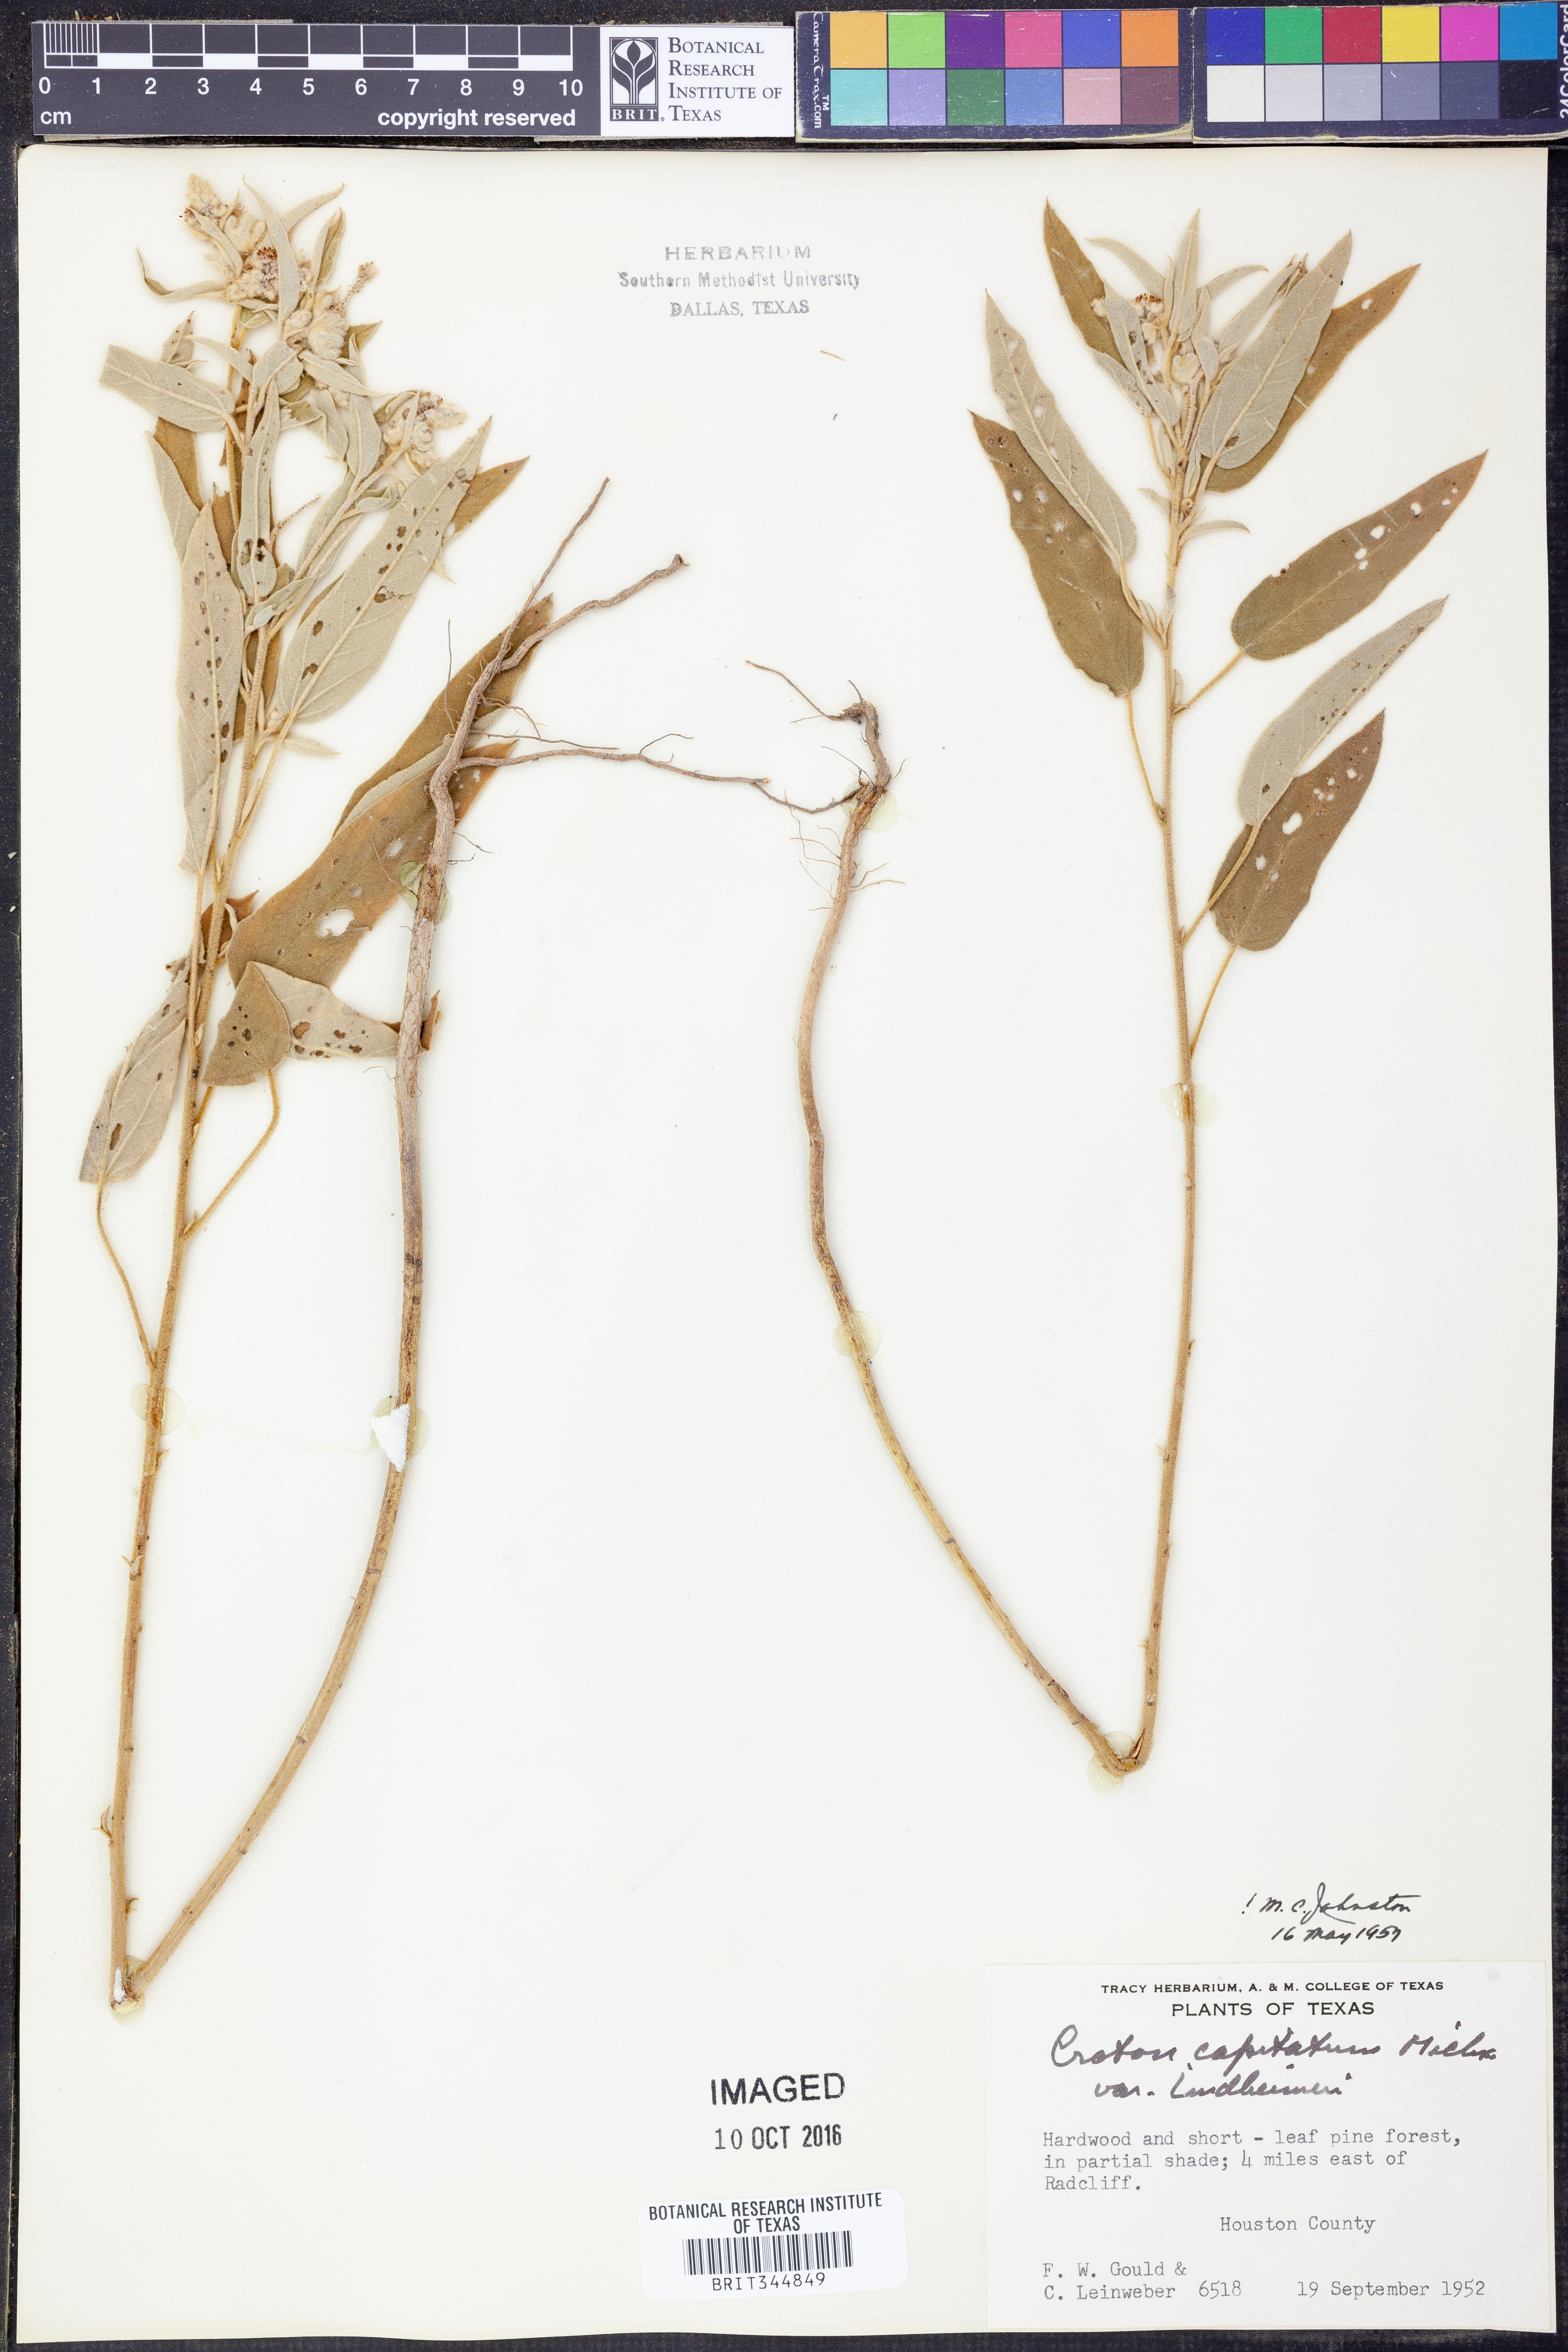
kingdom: Plantae
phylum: Tracheophyta
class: Magnoliopsida
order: Malpighiales
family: Euphorbiaceae
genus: Croton
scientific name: Croton lindheimeri
